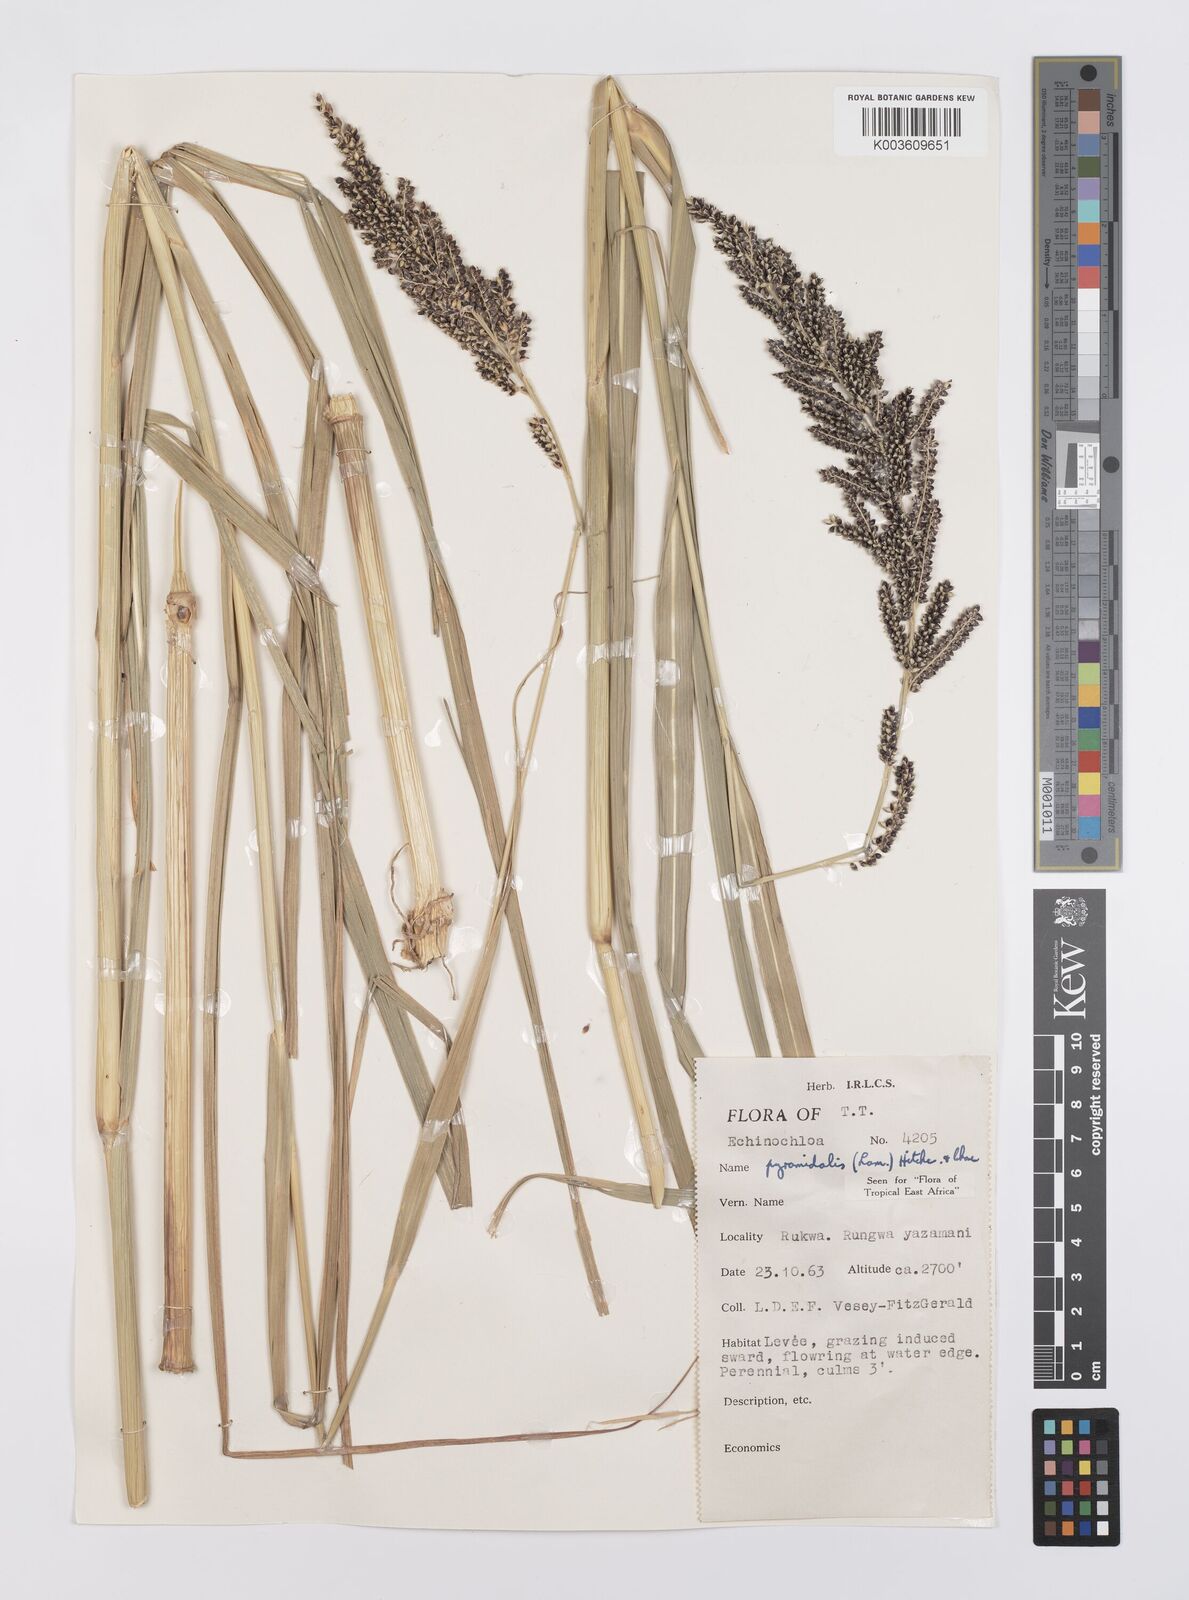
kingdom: Plantae
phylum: Tracheophyta
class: Liliopsida
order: Poales
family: Poaceae
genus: Echinochloa
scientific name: Echinochloa pyramidalis
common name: Antelope grass
